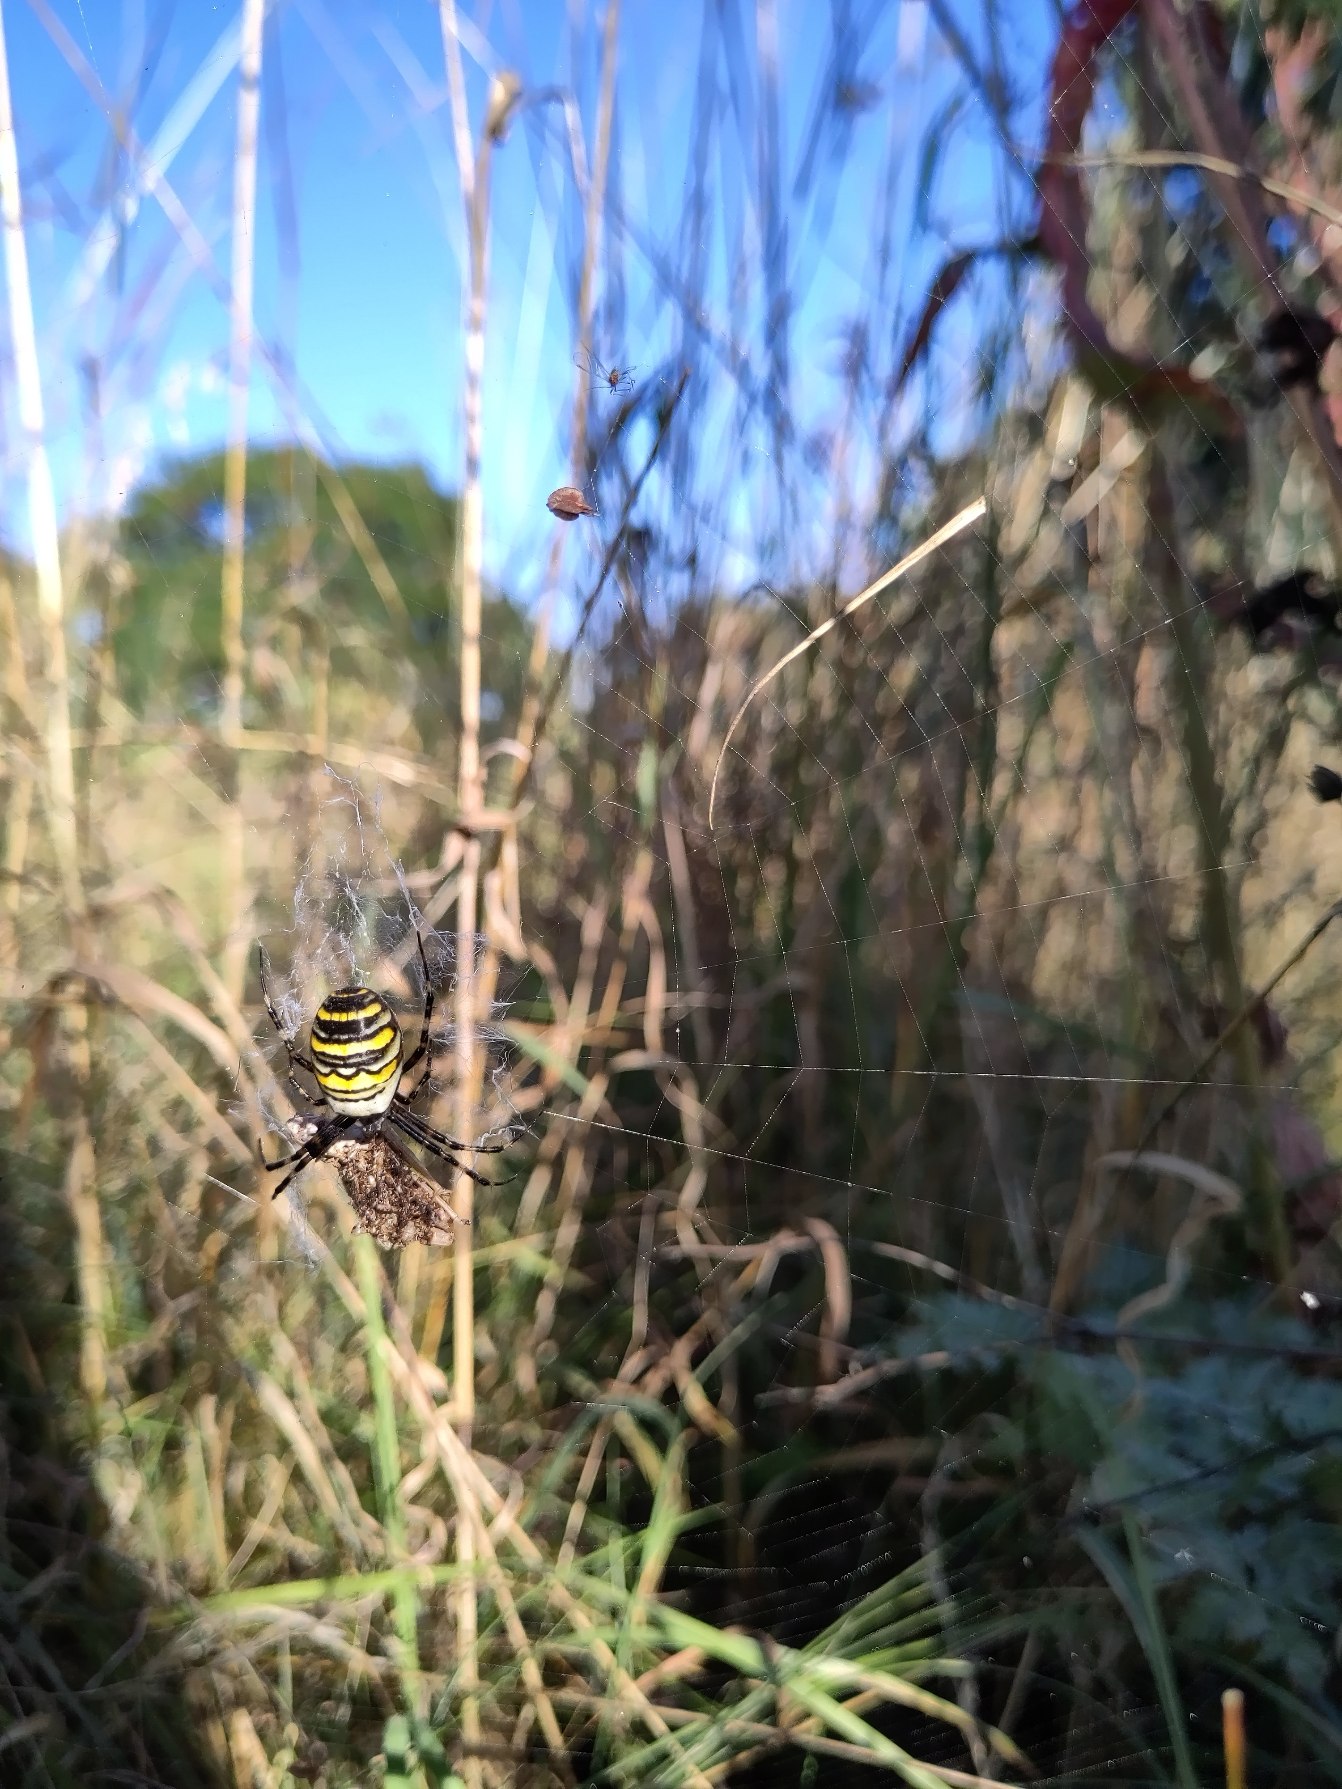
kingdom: Animalia
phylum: Arthropoda
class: Arachnida
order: Araneae
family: Araneidae
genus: Argiope
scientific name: Argiope bruennichi
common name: Hvepseedderkop
